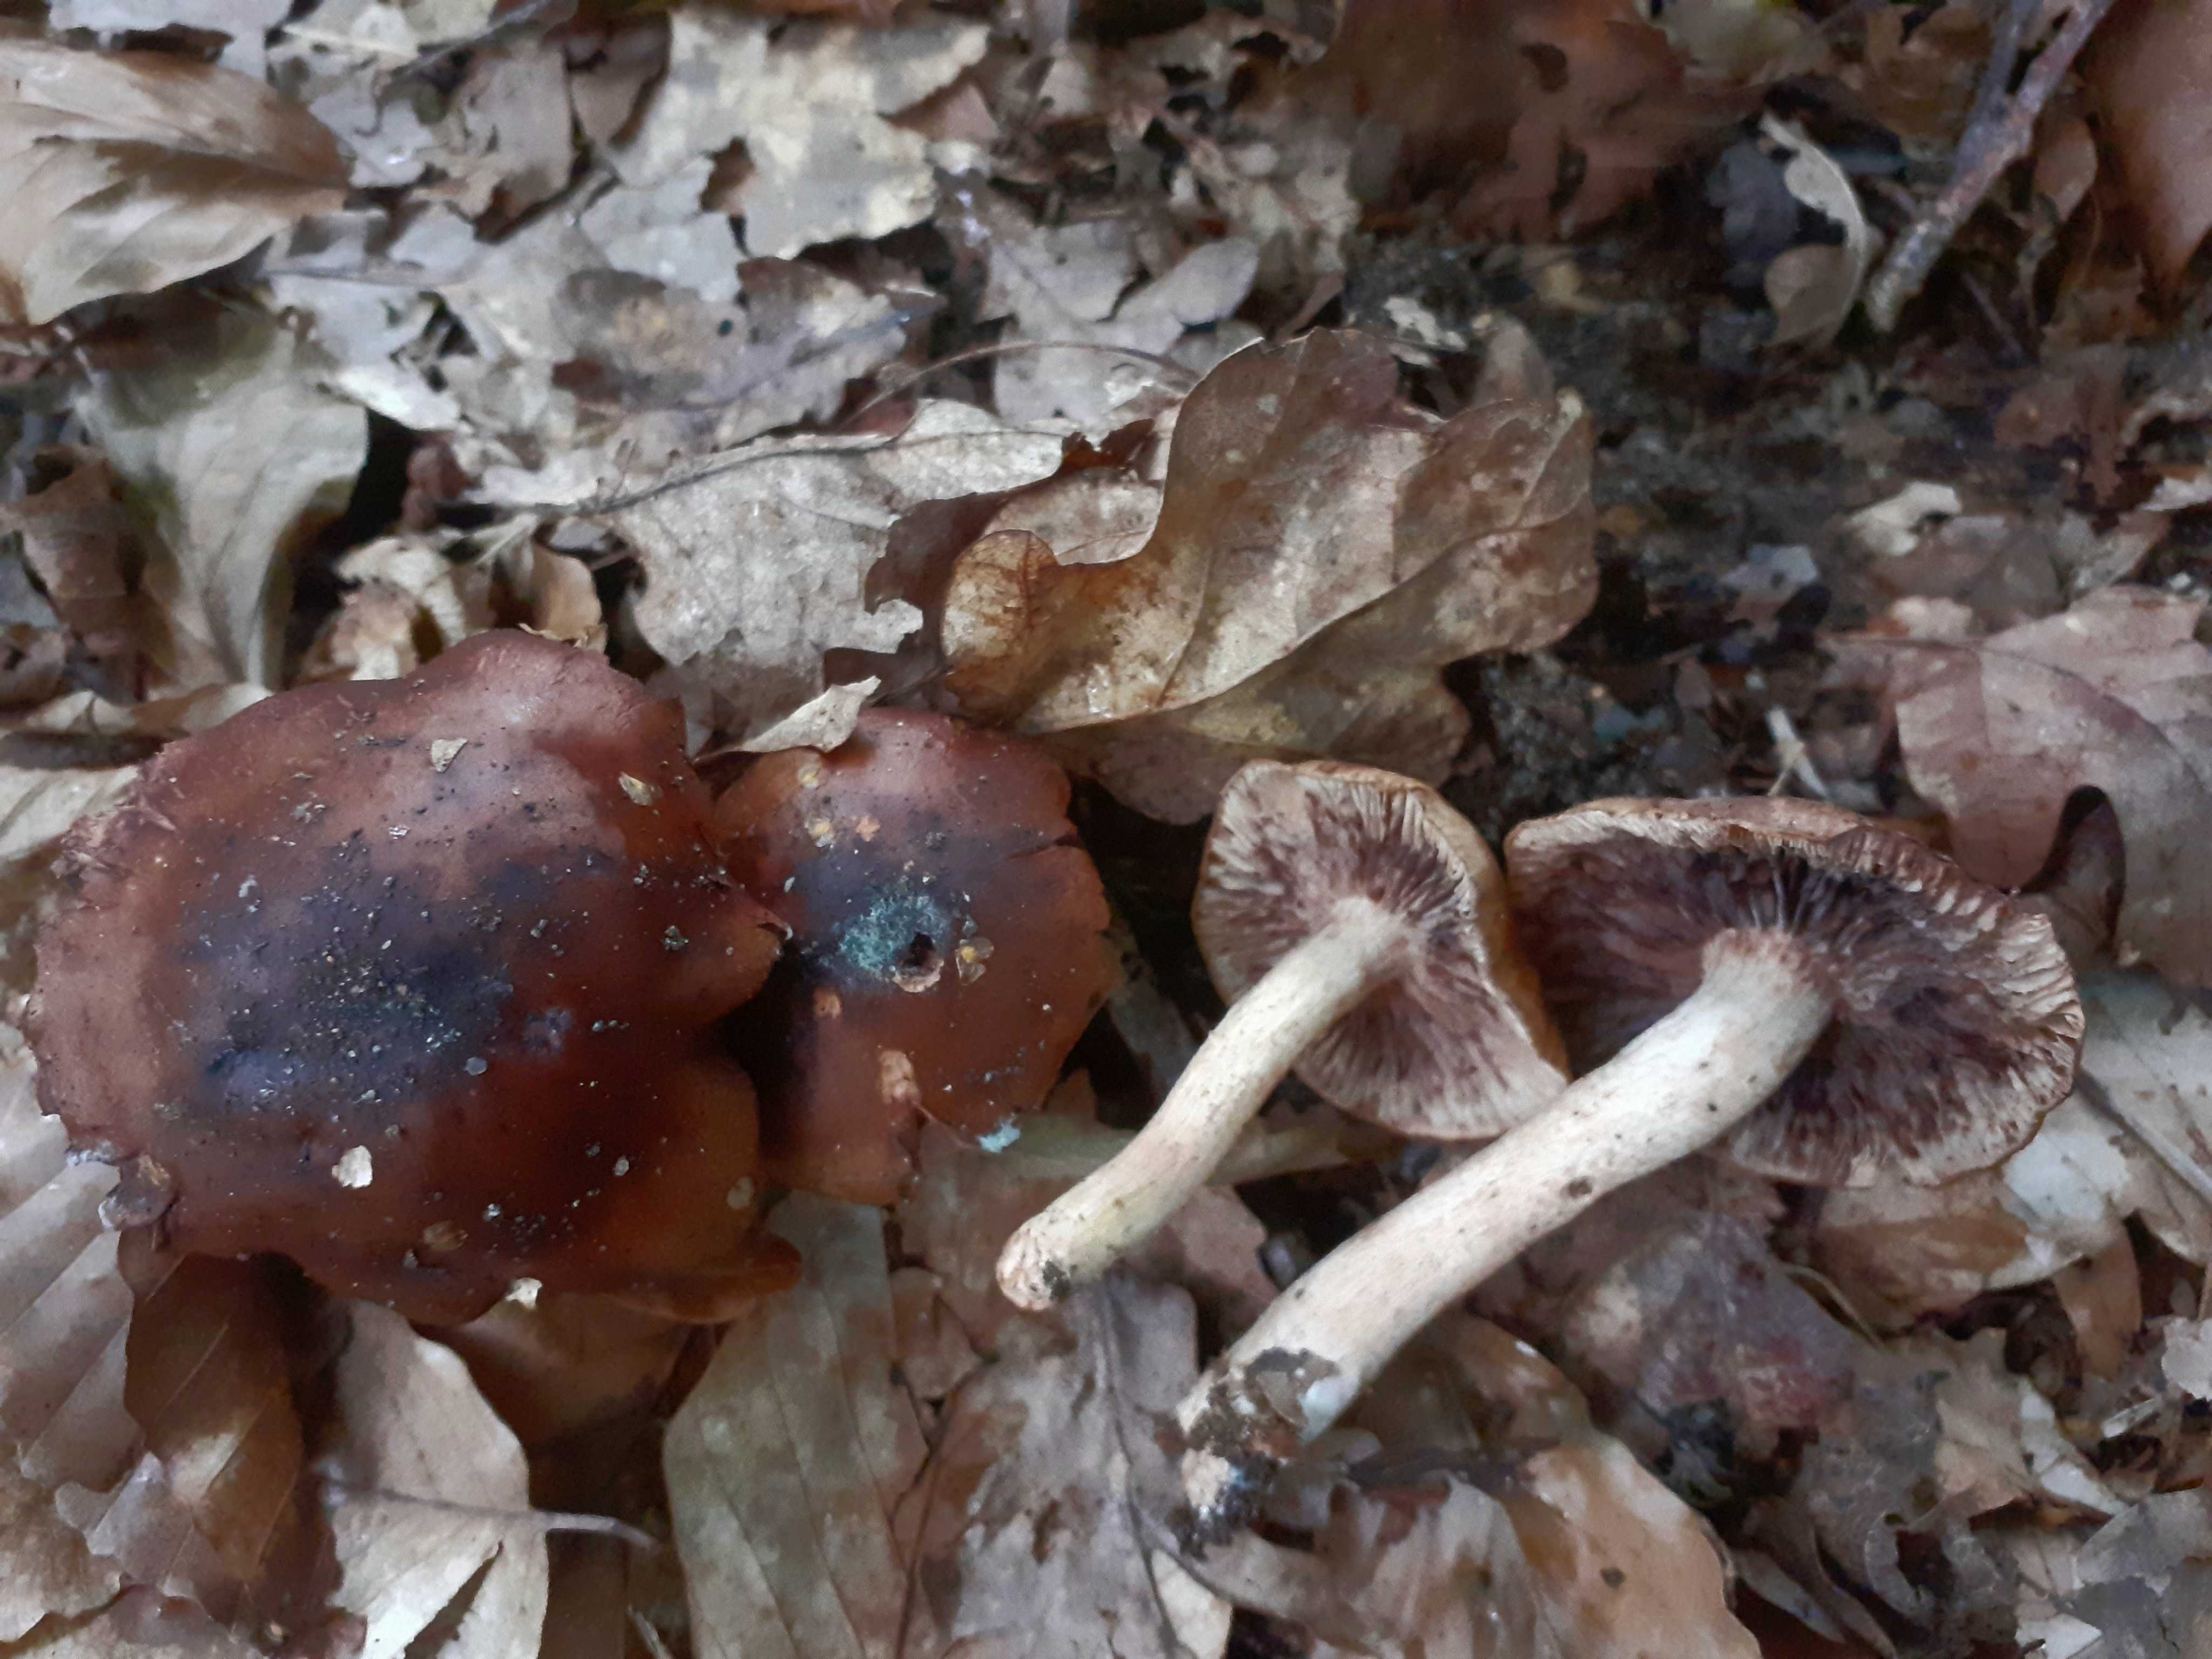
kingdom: Fungi
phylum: Basidiomycota
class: Agaricomycetes
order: Agaricales
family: Tricholomataceae
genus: Tricholoma
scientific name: Tricholoma ustale
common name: sveden ridderhat
